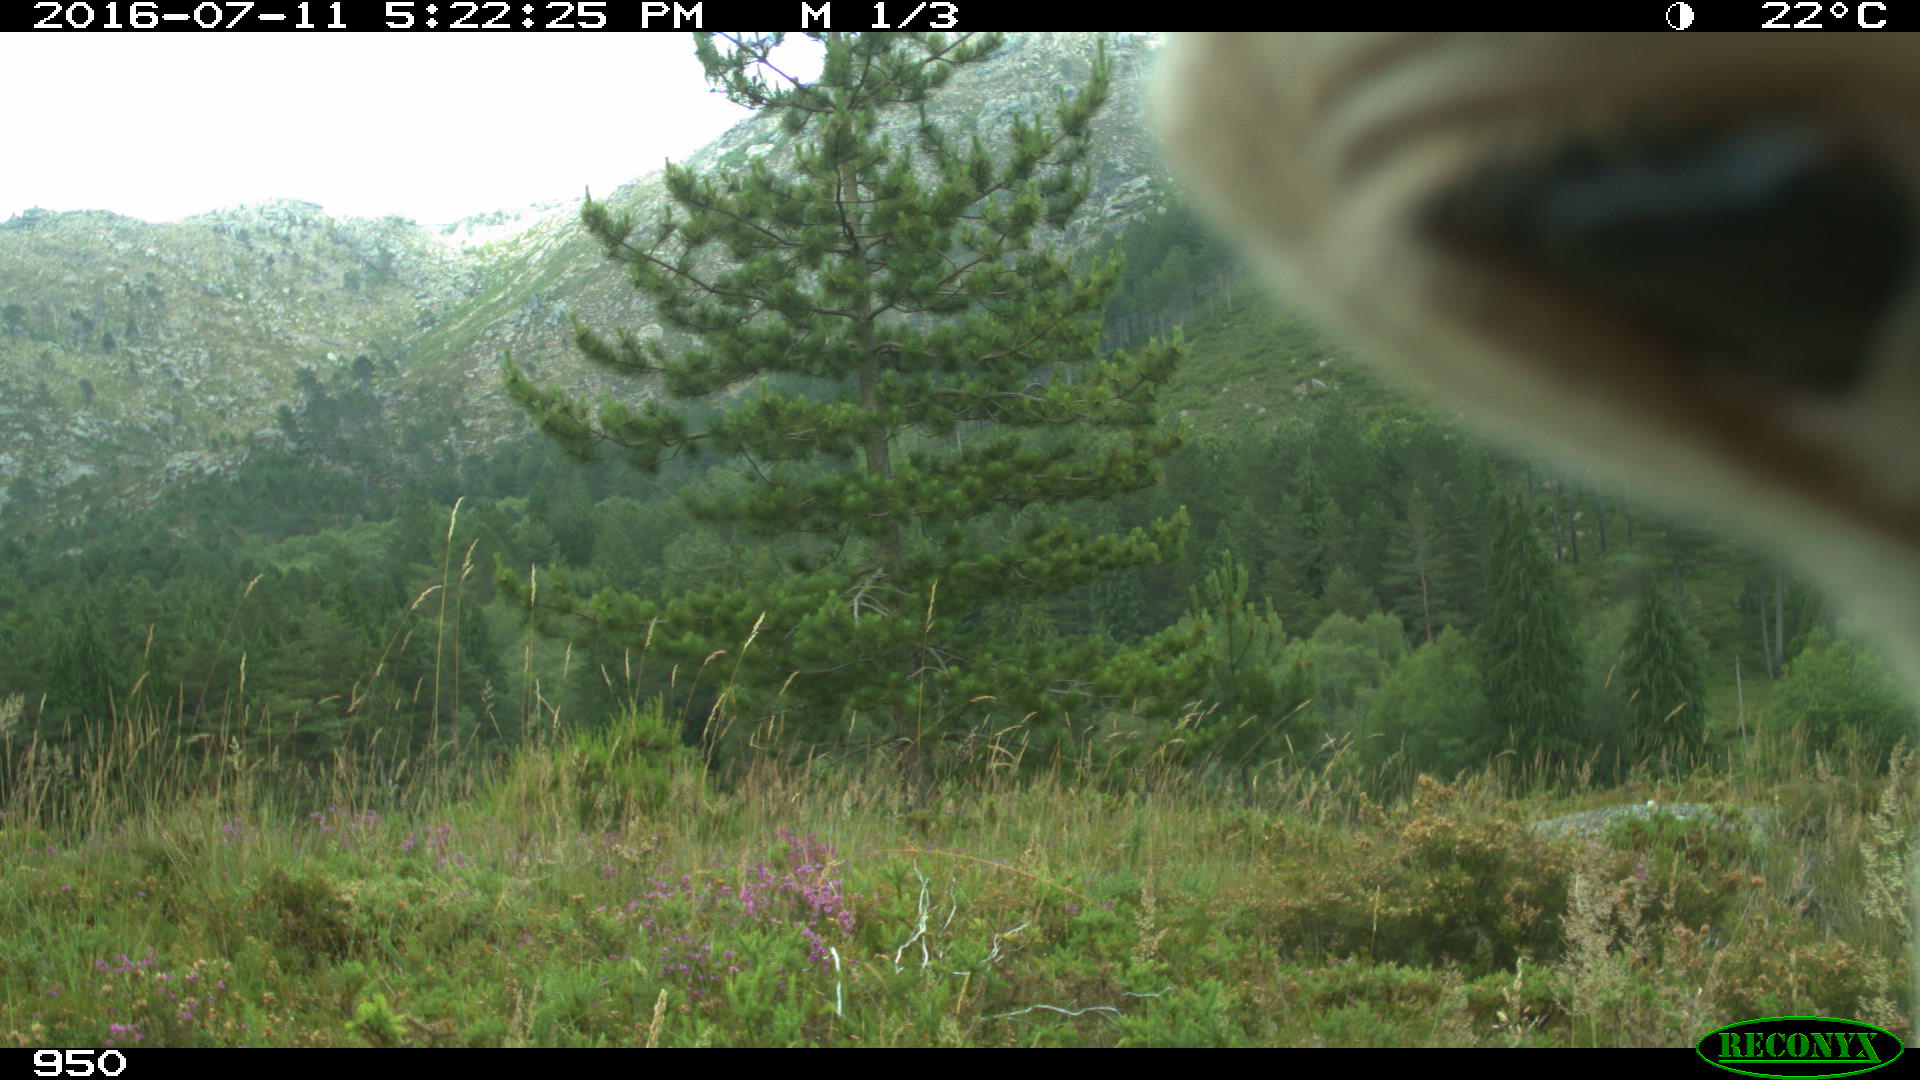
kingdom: Animalia
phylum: Chordata
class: Mammalia
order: Artiodactyla
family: Bovidae
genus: Bos
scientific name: Bos taurus
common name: Domesticated cattle
